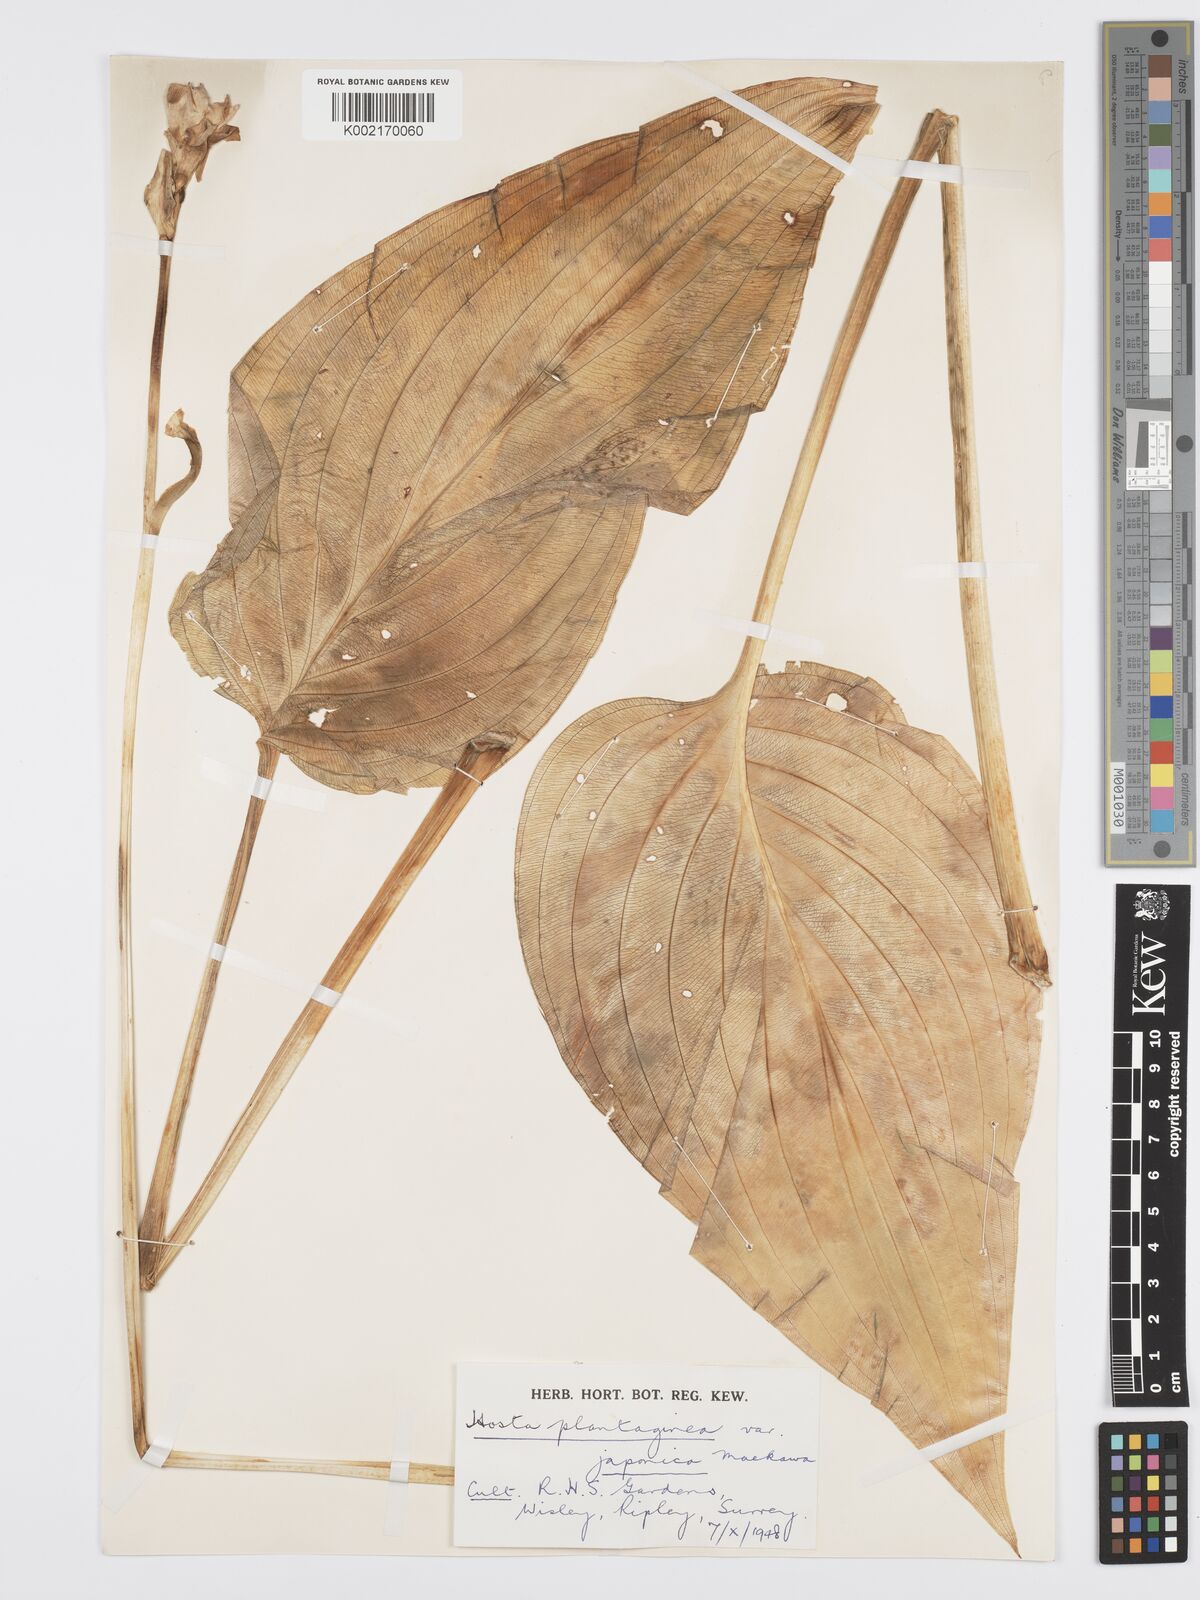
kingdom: Plantae
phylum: Tracheophyta
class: Liliopsida
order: Asparagales
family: Asparagaceae
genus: Hosta
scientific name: Hosta plantaginea
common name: August-lily
